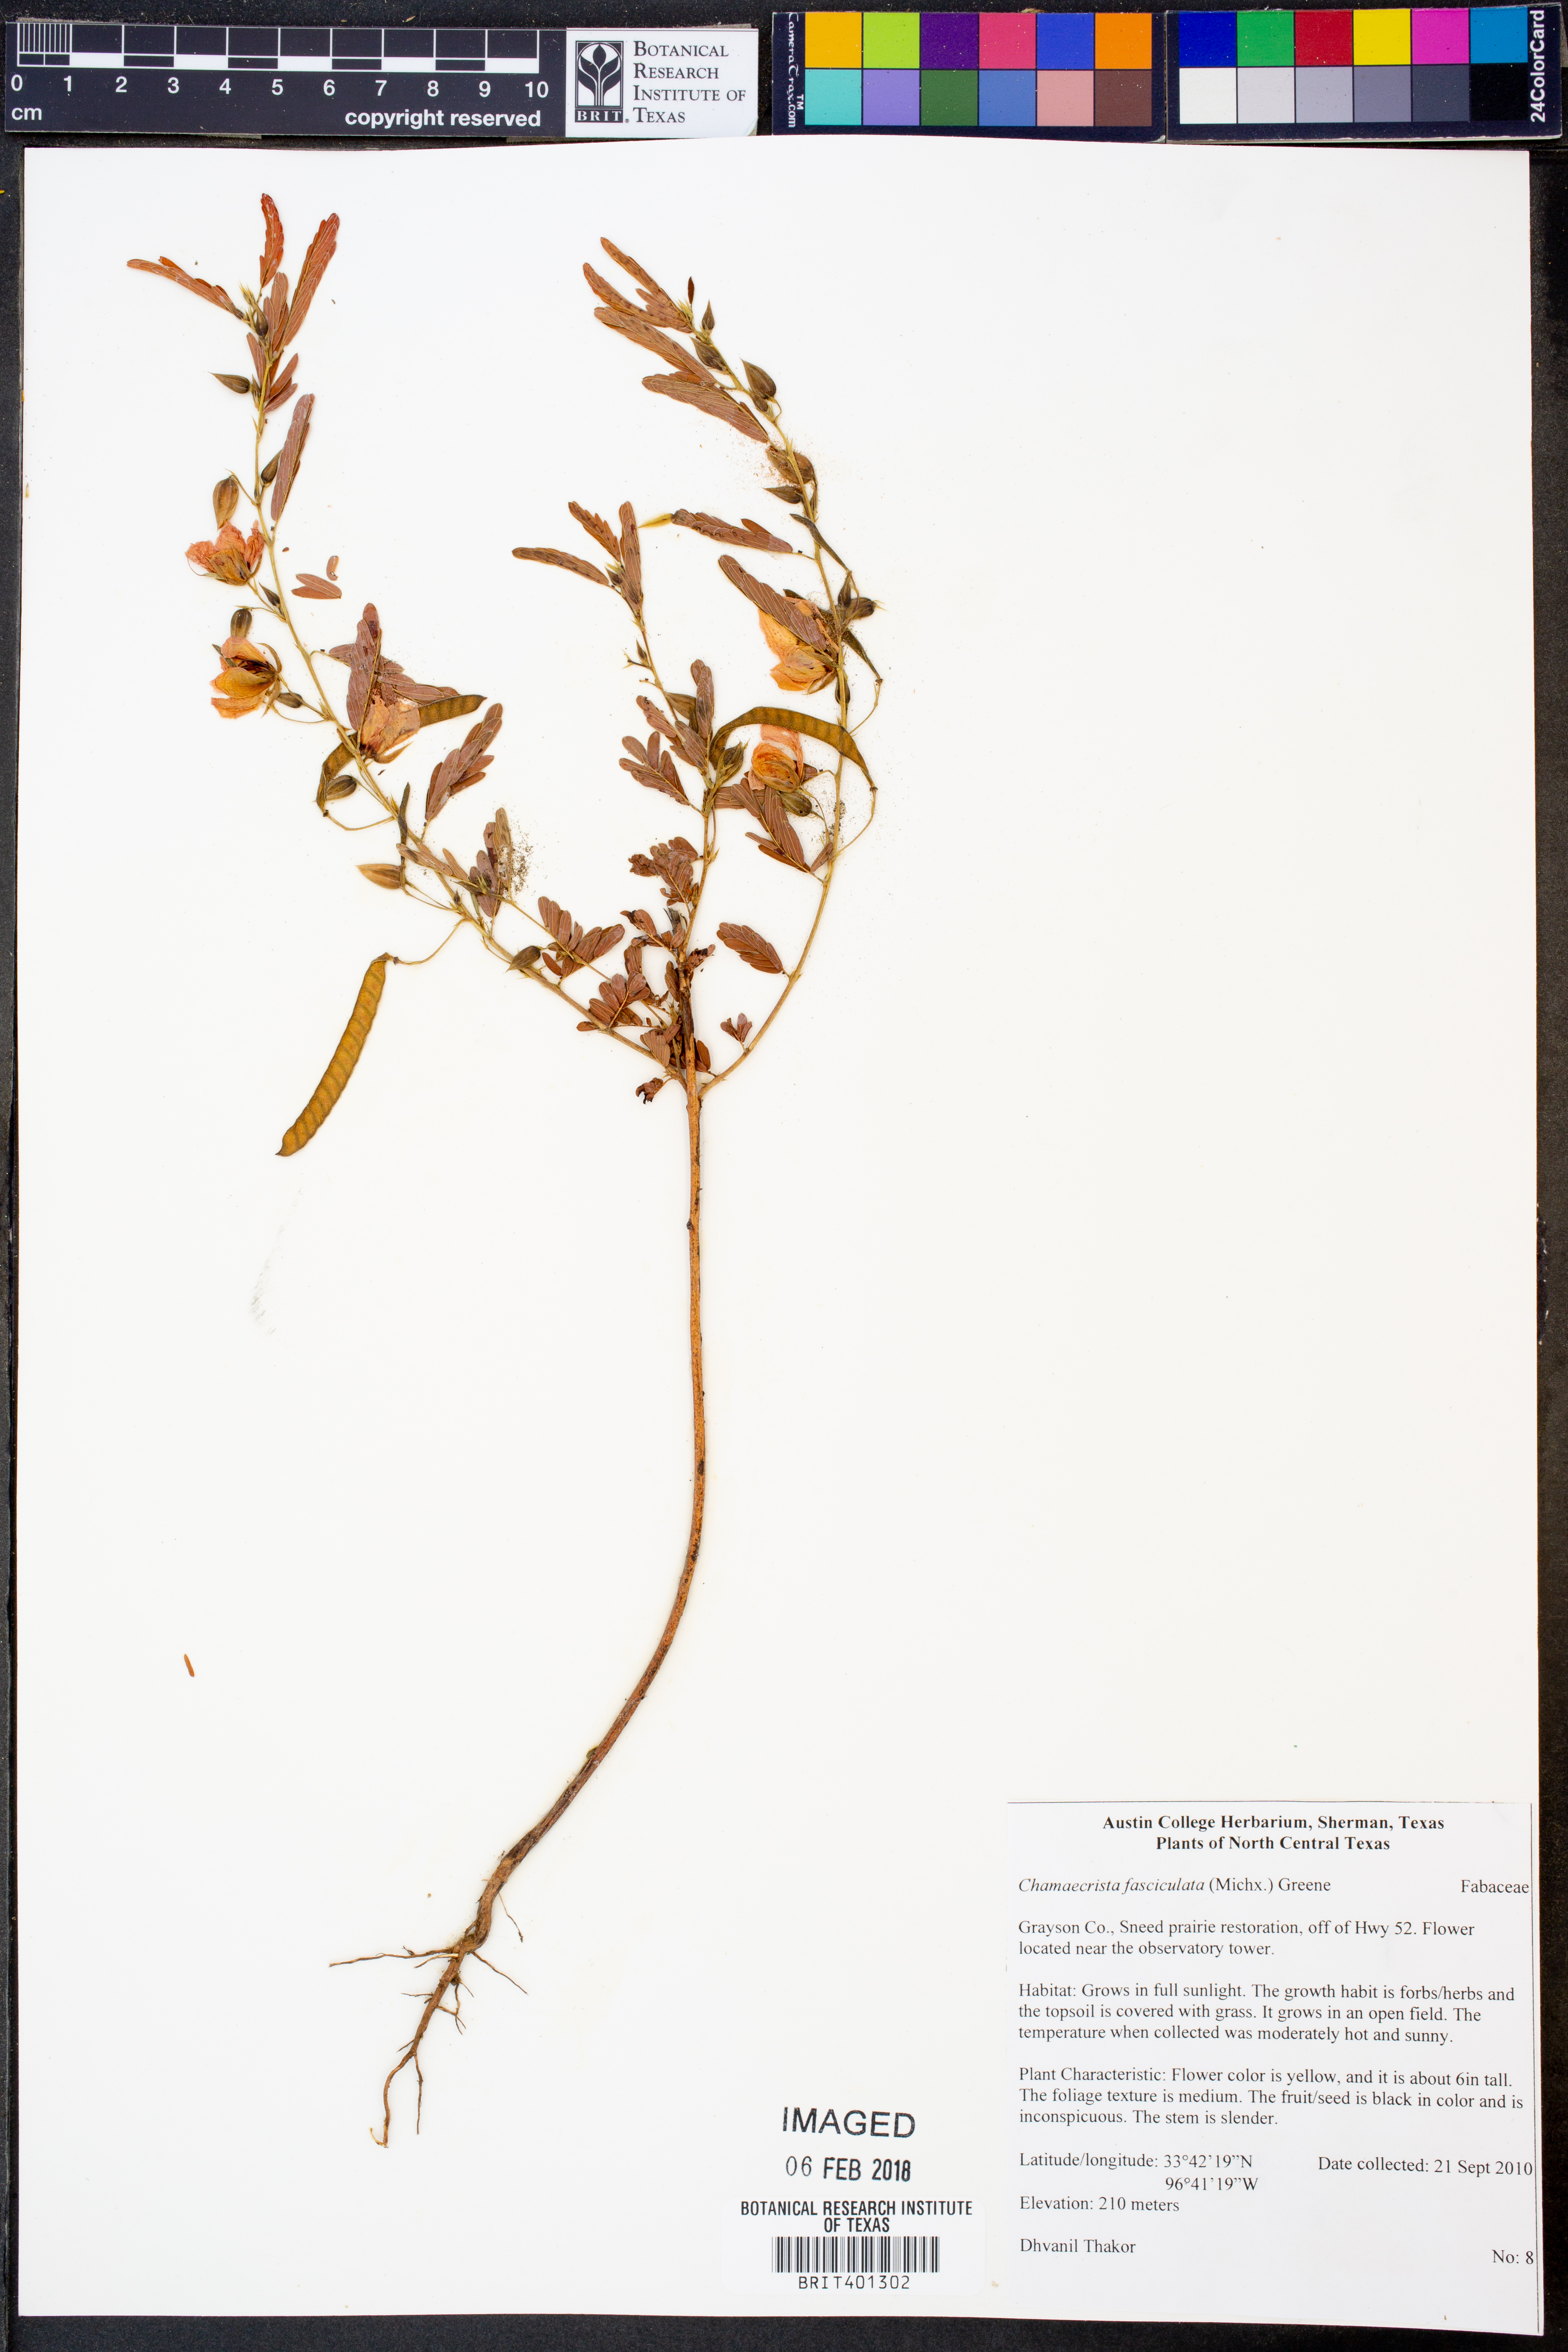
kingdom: Plantae
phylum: Tracheophyta
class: Magnoliopsida
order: Fabales
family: Fabaceae
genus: Chamaecrista
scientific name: Chamaecrista fasciculata
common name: Golden cassia
